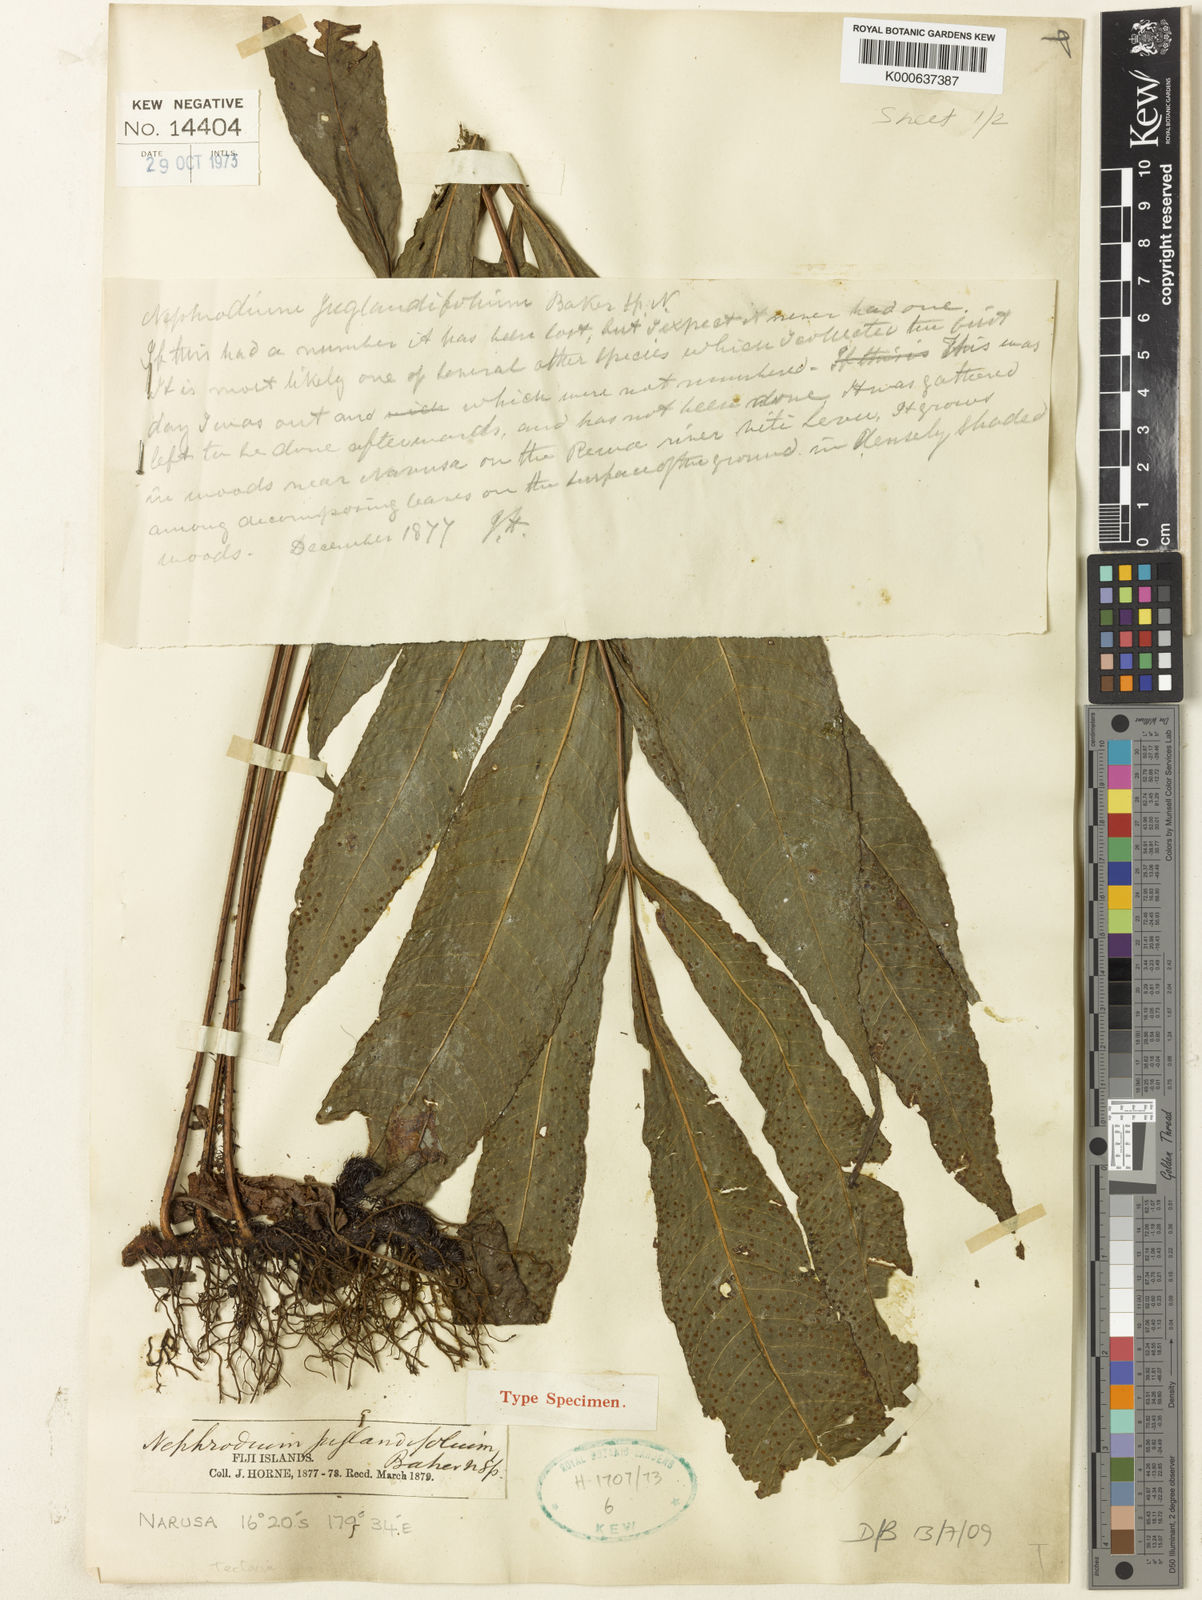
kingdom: Plantae
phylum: Tracheophyta
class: Polypodiopsida
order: Polypodiales
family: Tectariaceae
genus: Polydictyum
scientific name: Polydictyum menyanthidis
